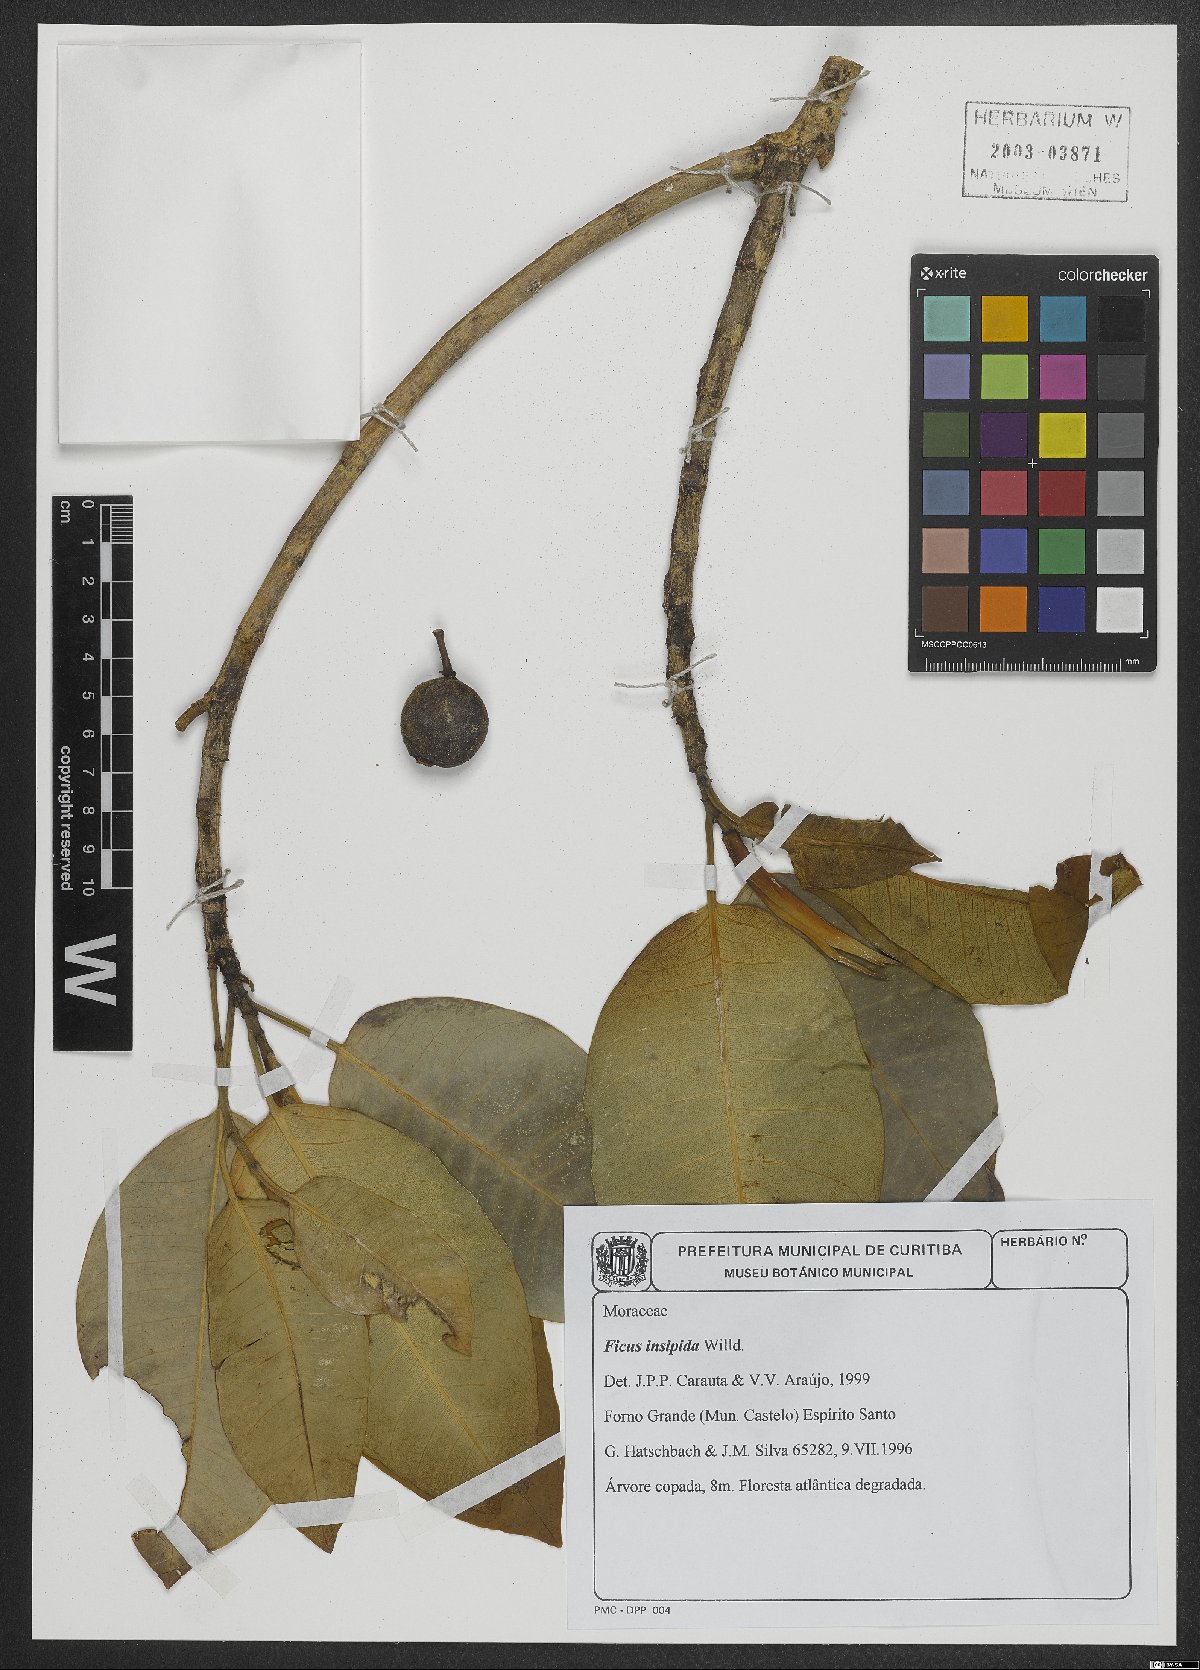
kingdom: Plantae
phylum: Tracheophyta
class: Magnoliopsida
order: Rosales
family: Moraceae
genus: Ficus
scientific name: Ficus insipida
